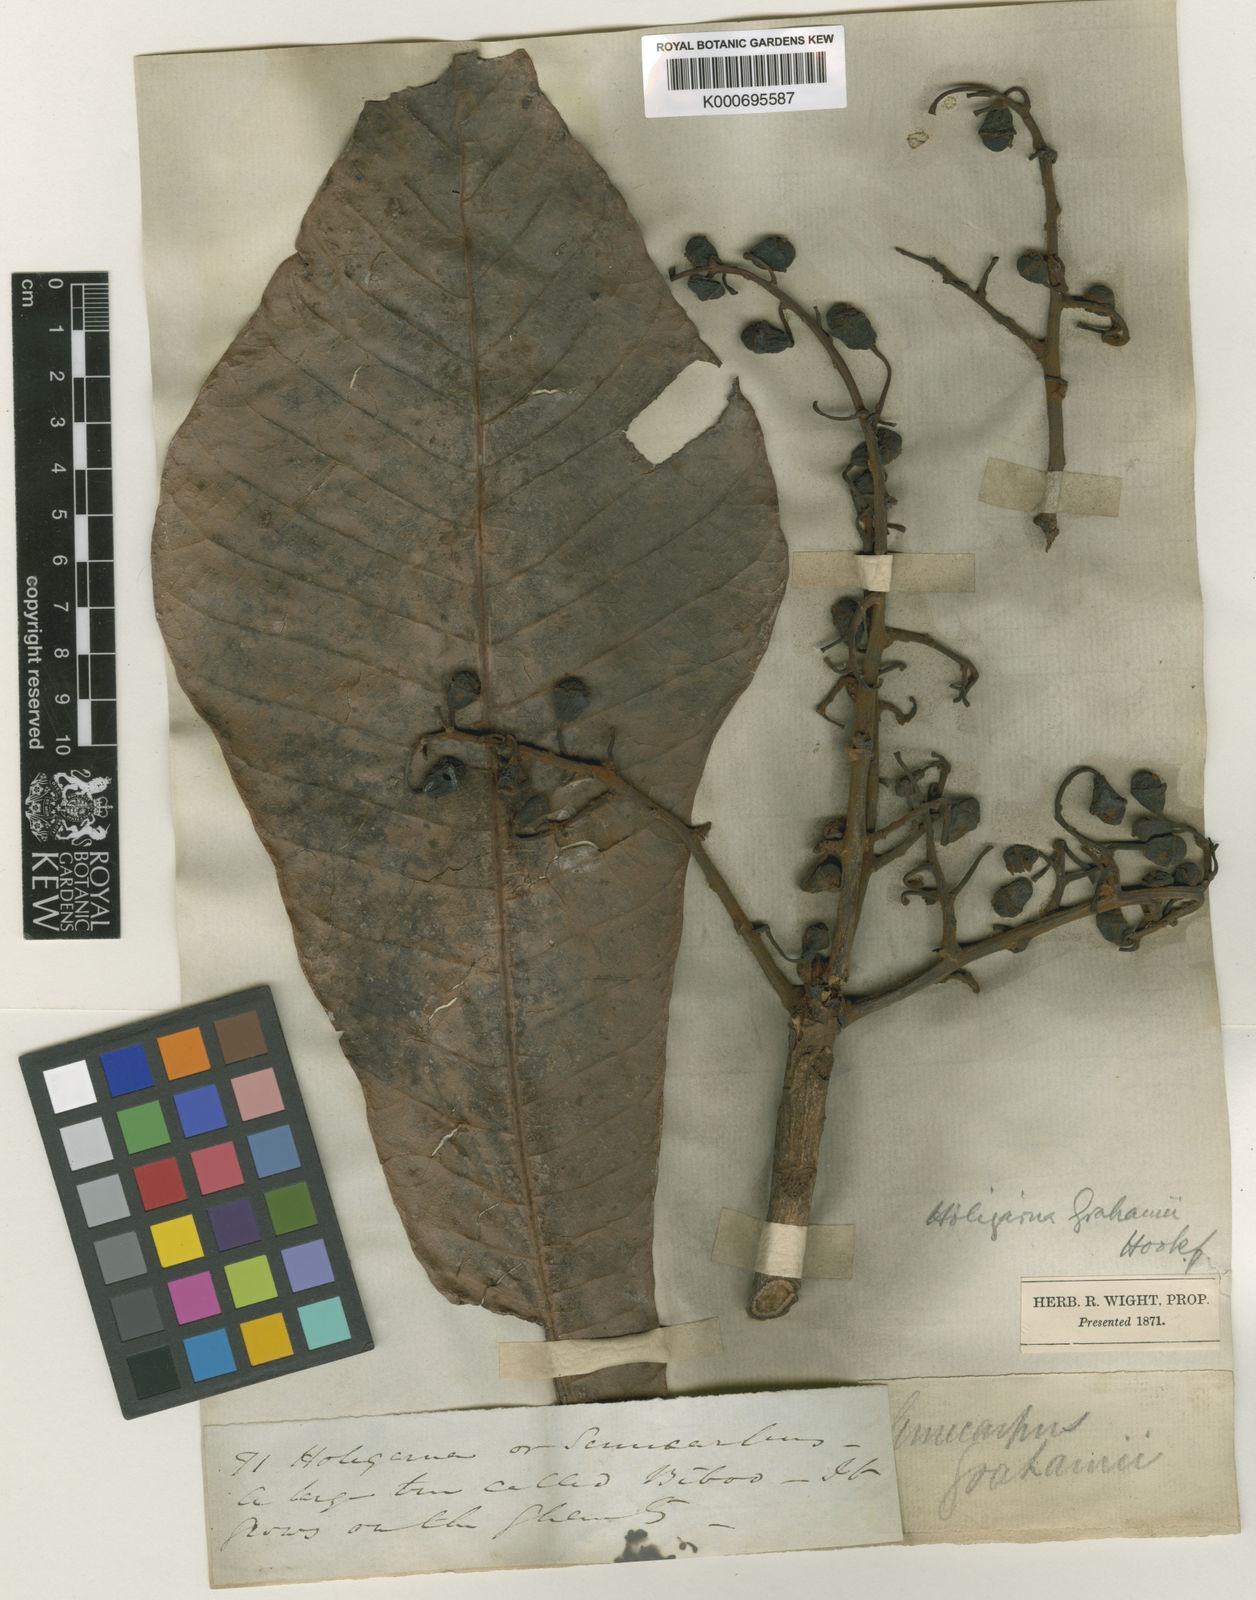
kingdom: Plantae
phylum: Tracheophyta
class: Magnoliopsida
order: Sapindales
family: Anacardiaceae
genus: Holigarna
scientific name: Holigarna grahamii
